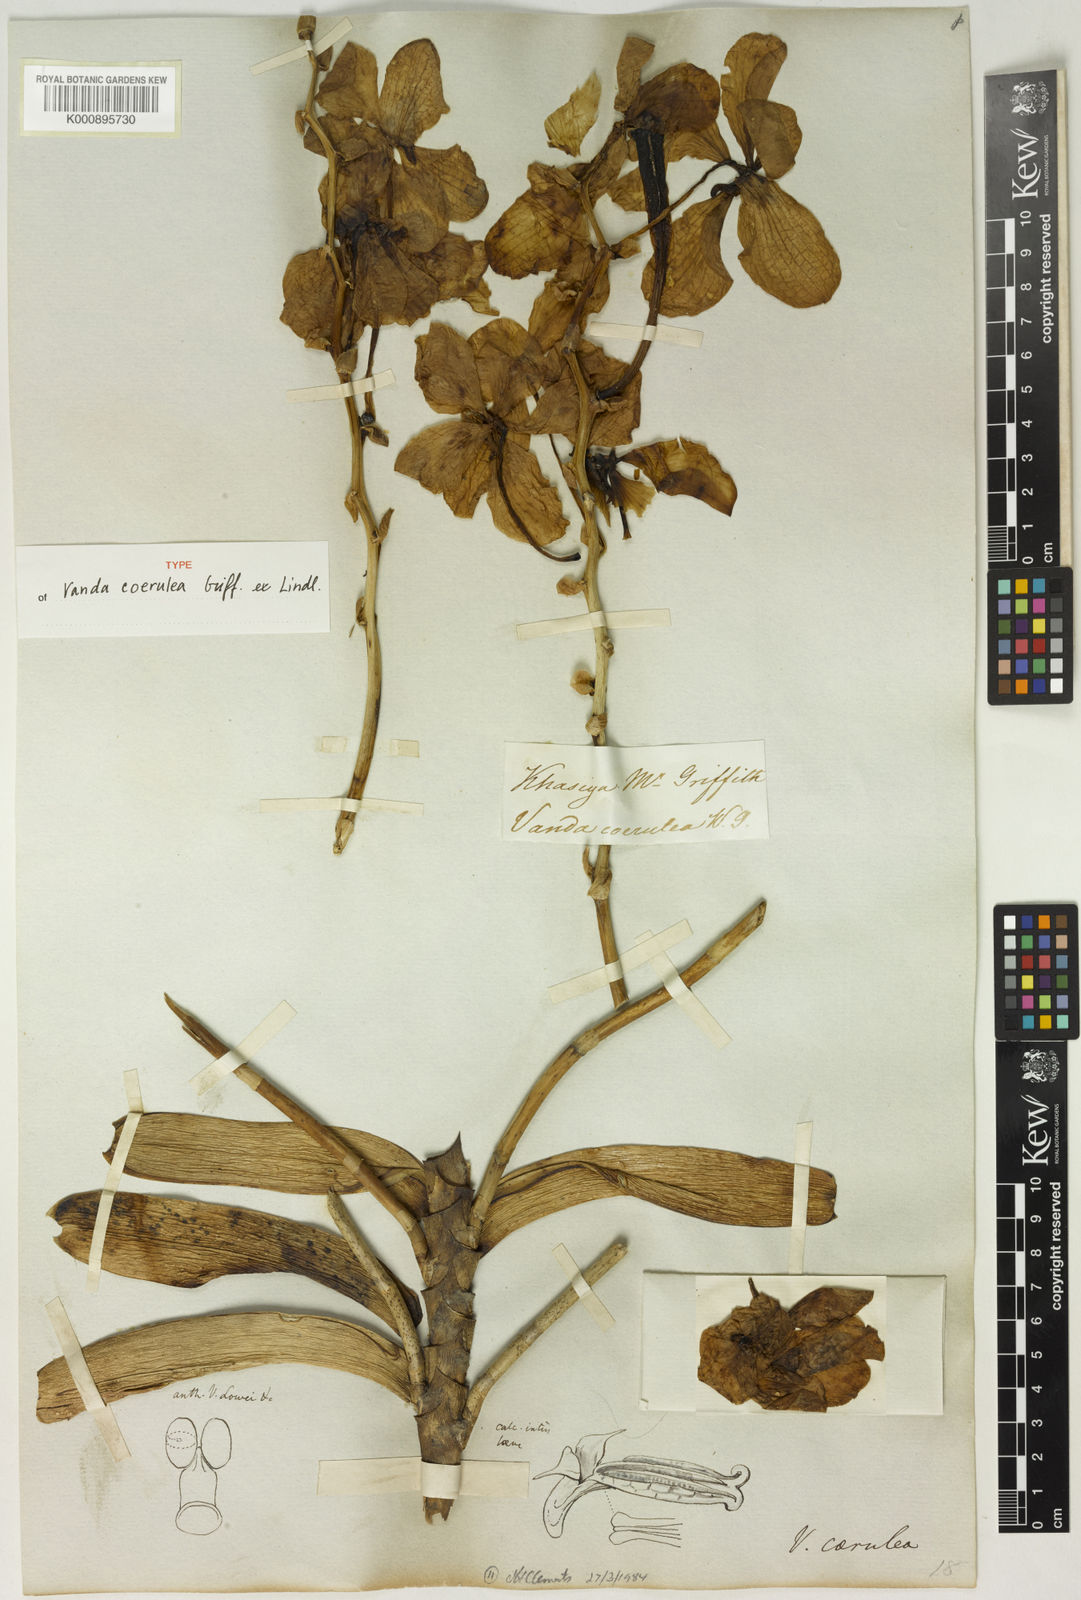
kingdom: Plantae
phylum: Tracheophyta
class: Liliopsida
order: Asparagales
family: Orchidaceae
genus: Vanda
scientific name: Vanda coerulea
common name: Blue orchid
